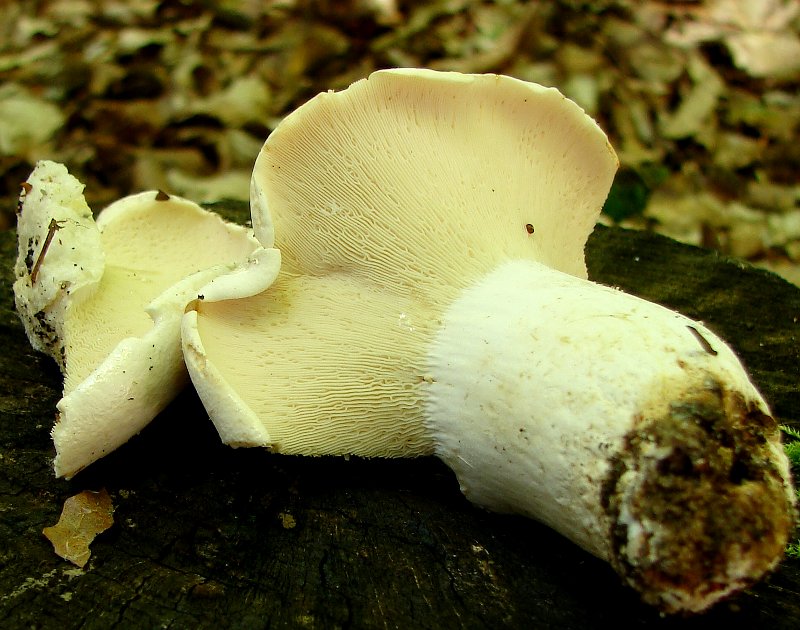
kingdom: Fungi
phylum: Basidiomycota
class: Agaricomycetes
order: Russulales
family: Russulaceae
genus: Lactifluus
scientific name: Lactifluus piperatus
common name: peber-mælkehat
